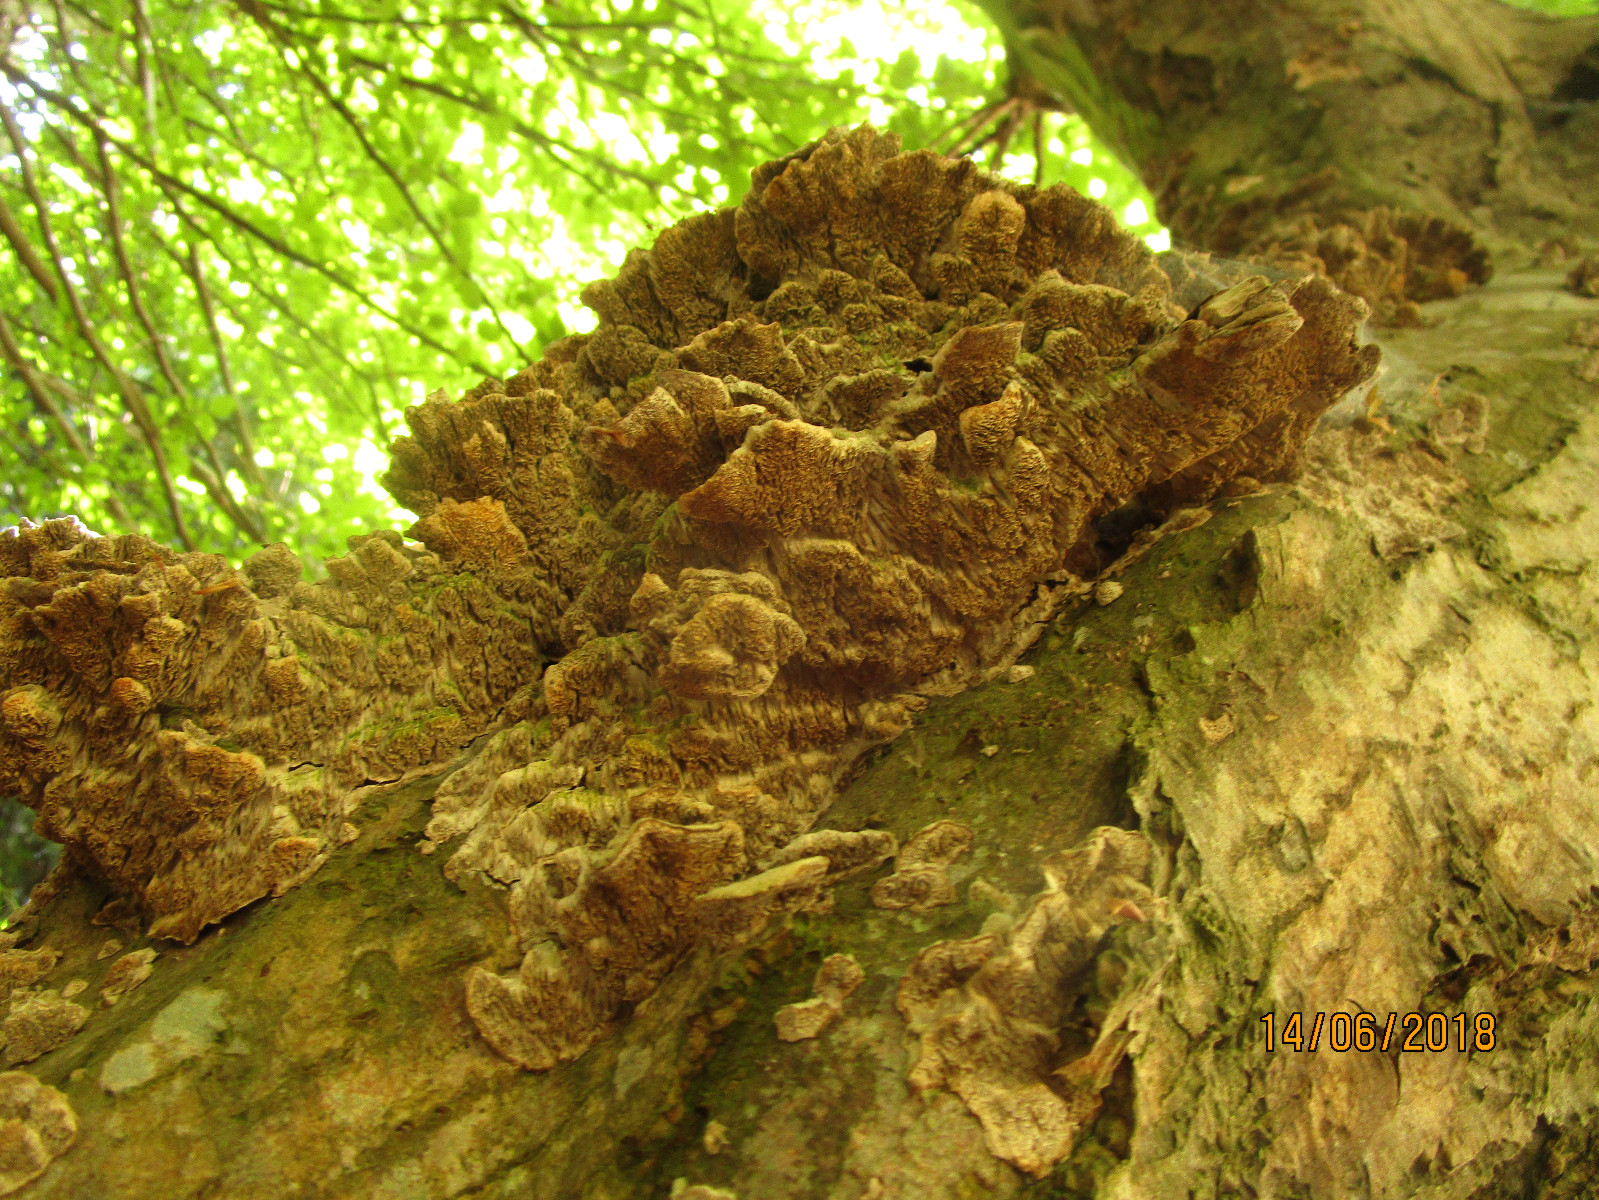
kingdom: Fungi
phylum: Basidiomycota
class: Agaricomycetes
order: Polyporales
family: Cerrenaceae
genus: Cerrena
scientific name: Cerrena unicolor
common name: ensfarvet læderporesvamp
